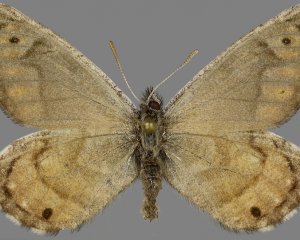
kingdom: Animalia
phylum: Arthropoda
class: Insecta
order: Lepidoptera
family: Nymphalidae
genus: Oeneis
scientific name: Oeneis alberta
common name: Alberta Arctic
